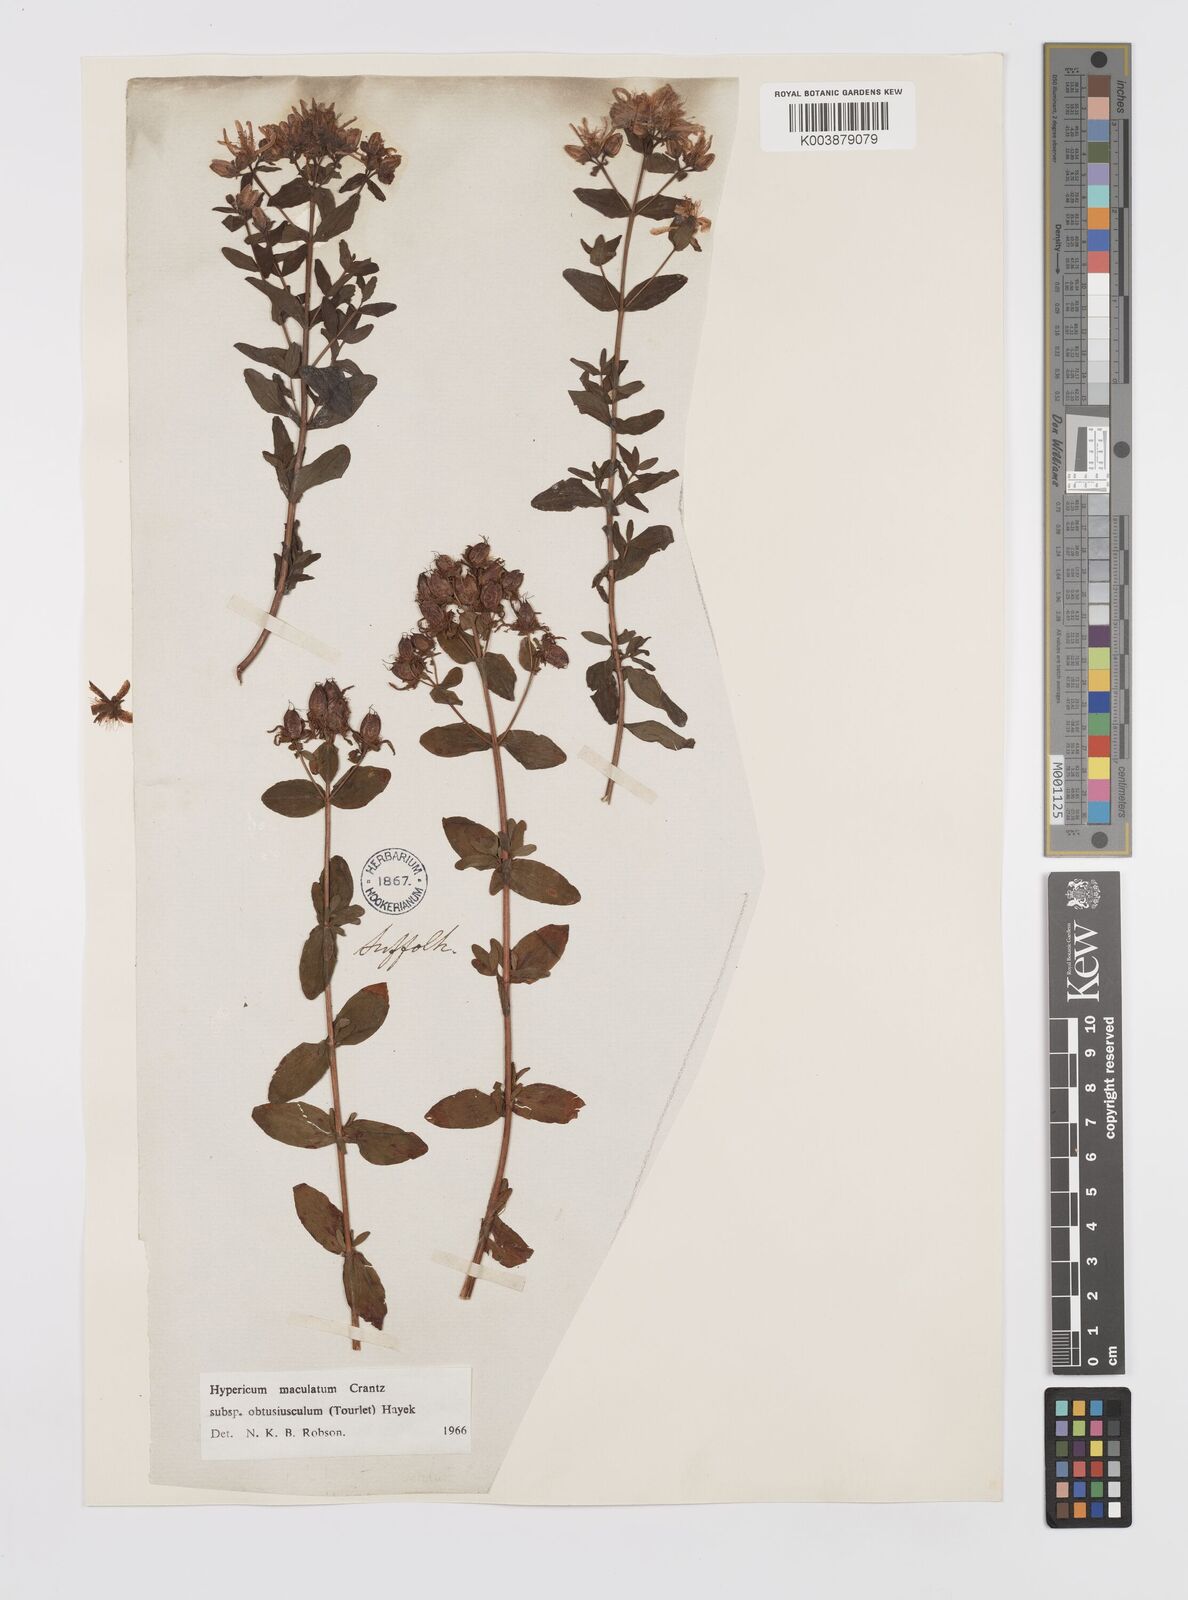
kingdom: Plantae
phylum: Tracheophyta
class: Magnoliopsida
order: Malpighiales
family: Hypericaceae
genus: Hypericum
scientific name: Hypericum dubium
